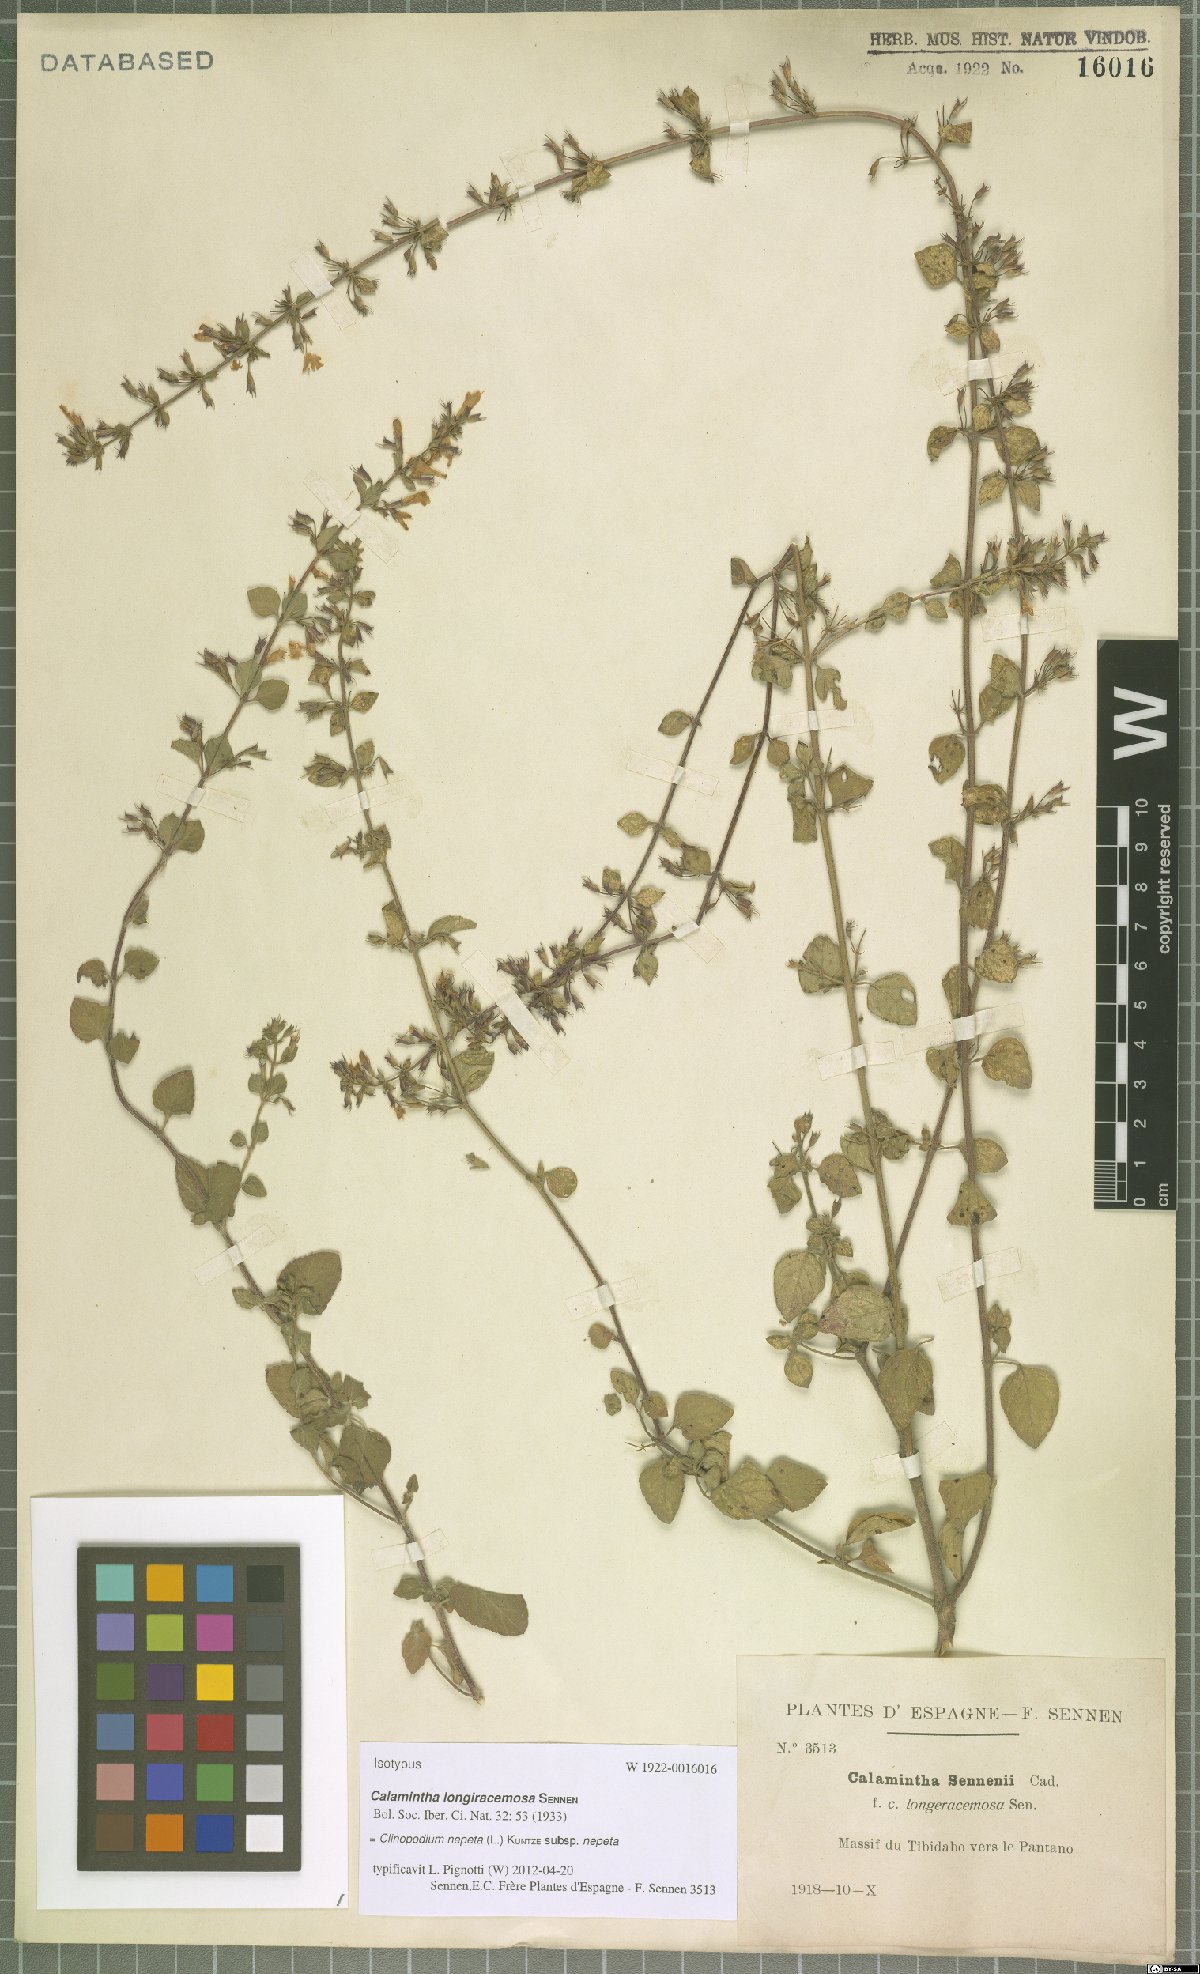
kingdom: Plantae
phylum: Tracheophyta
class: Magnoliopsida
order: Lamiales
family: Lamiaceae
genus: Clinopodium
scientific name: Clinopodium nepeta
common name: Lesser calamint
